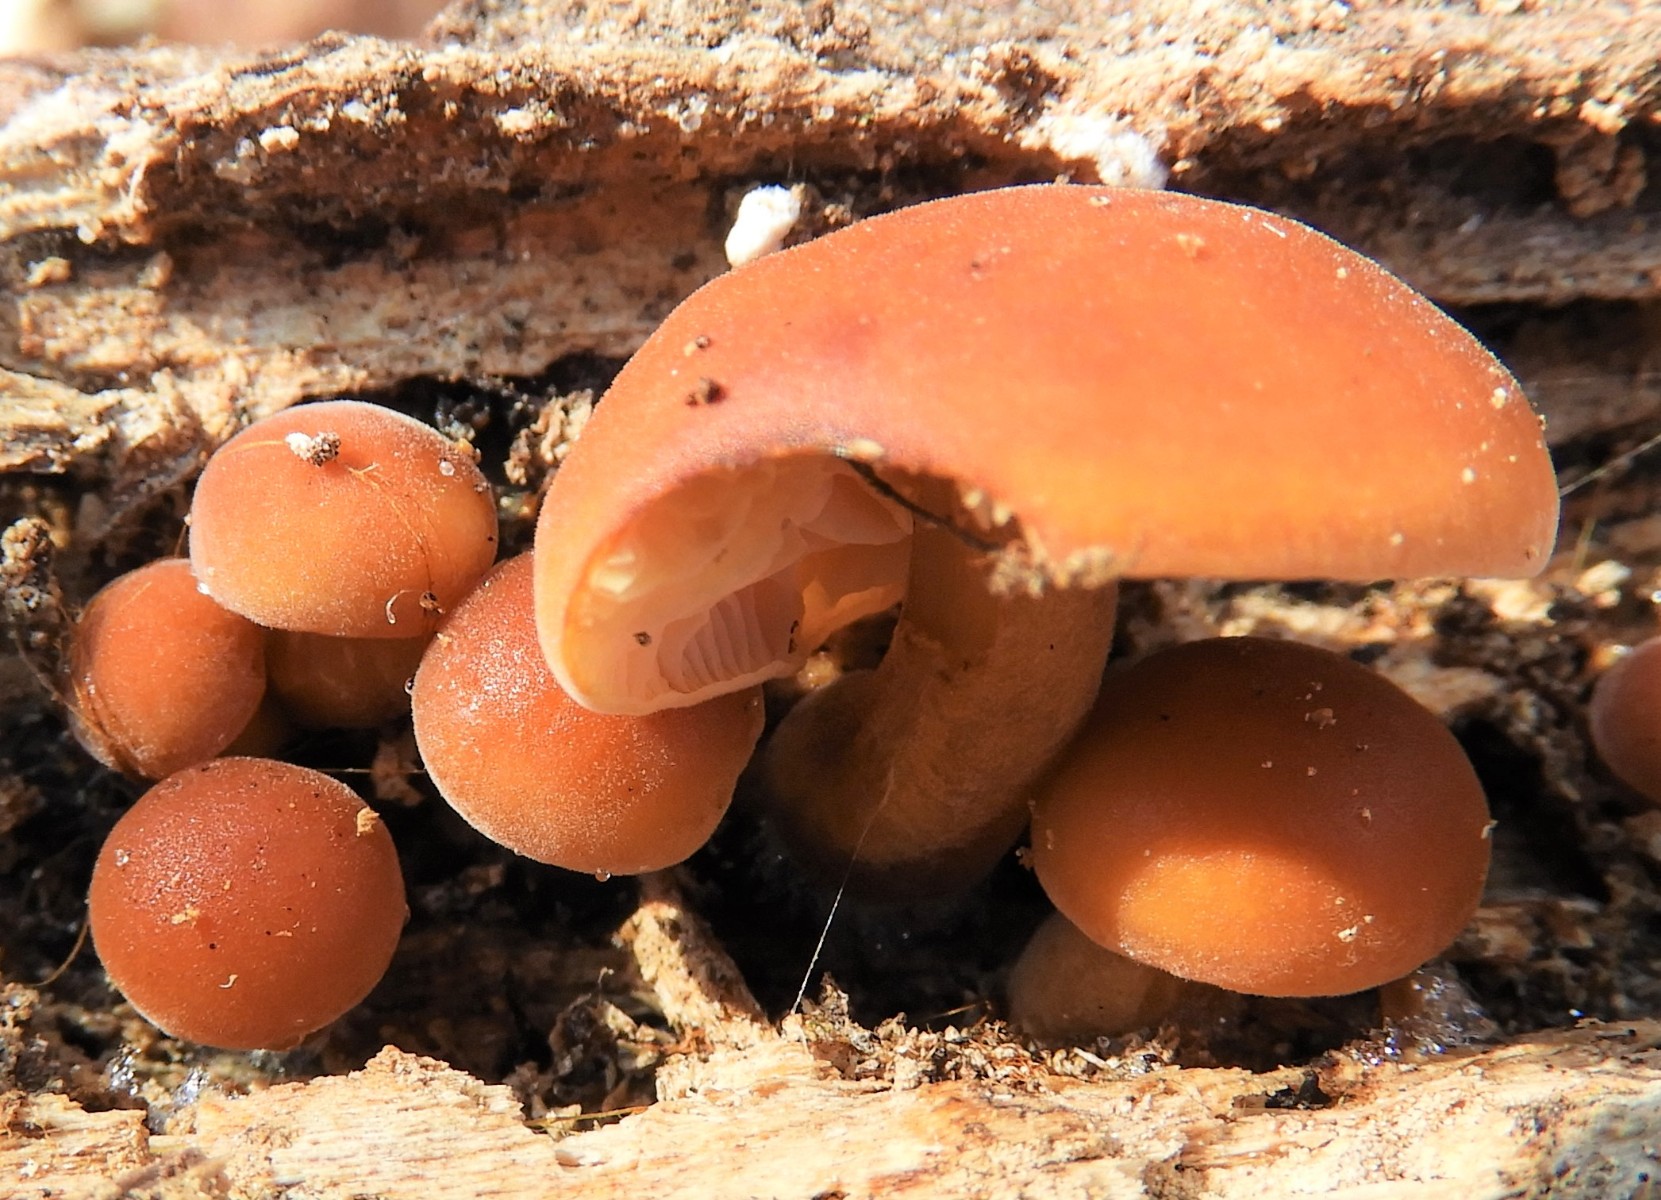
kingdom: Fungi
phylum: Basidiomycota
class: Agaricomycetes
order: Agaricales
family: Physalacriaceae
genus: Flammulina
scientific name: Flammulina velutipes
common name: gul fløjlsfod
